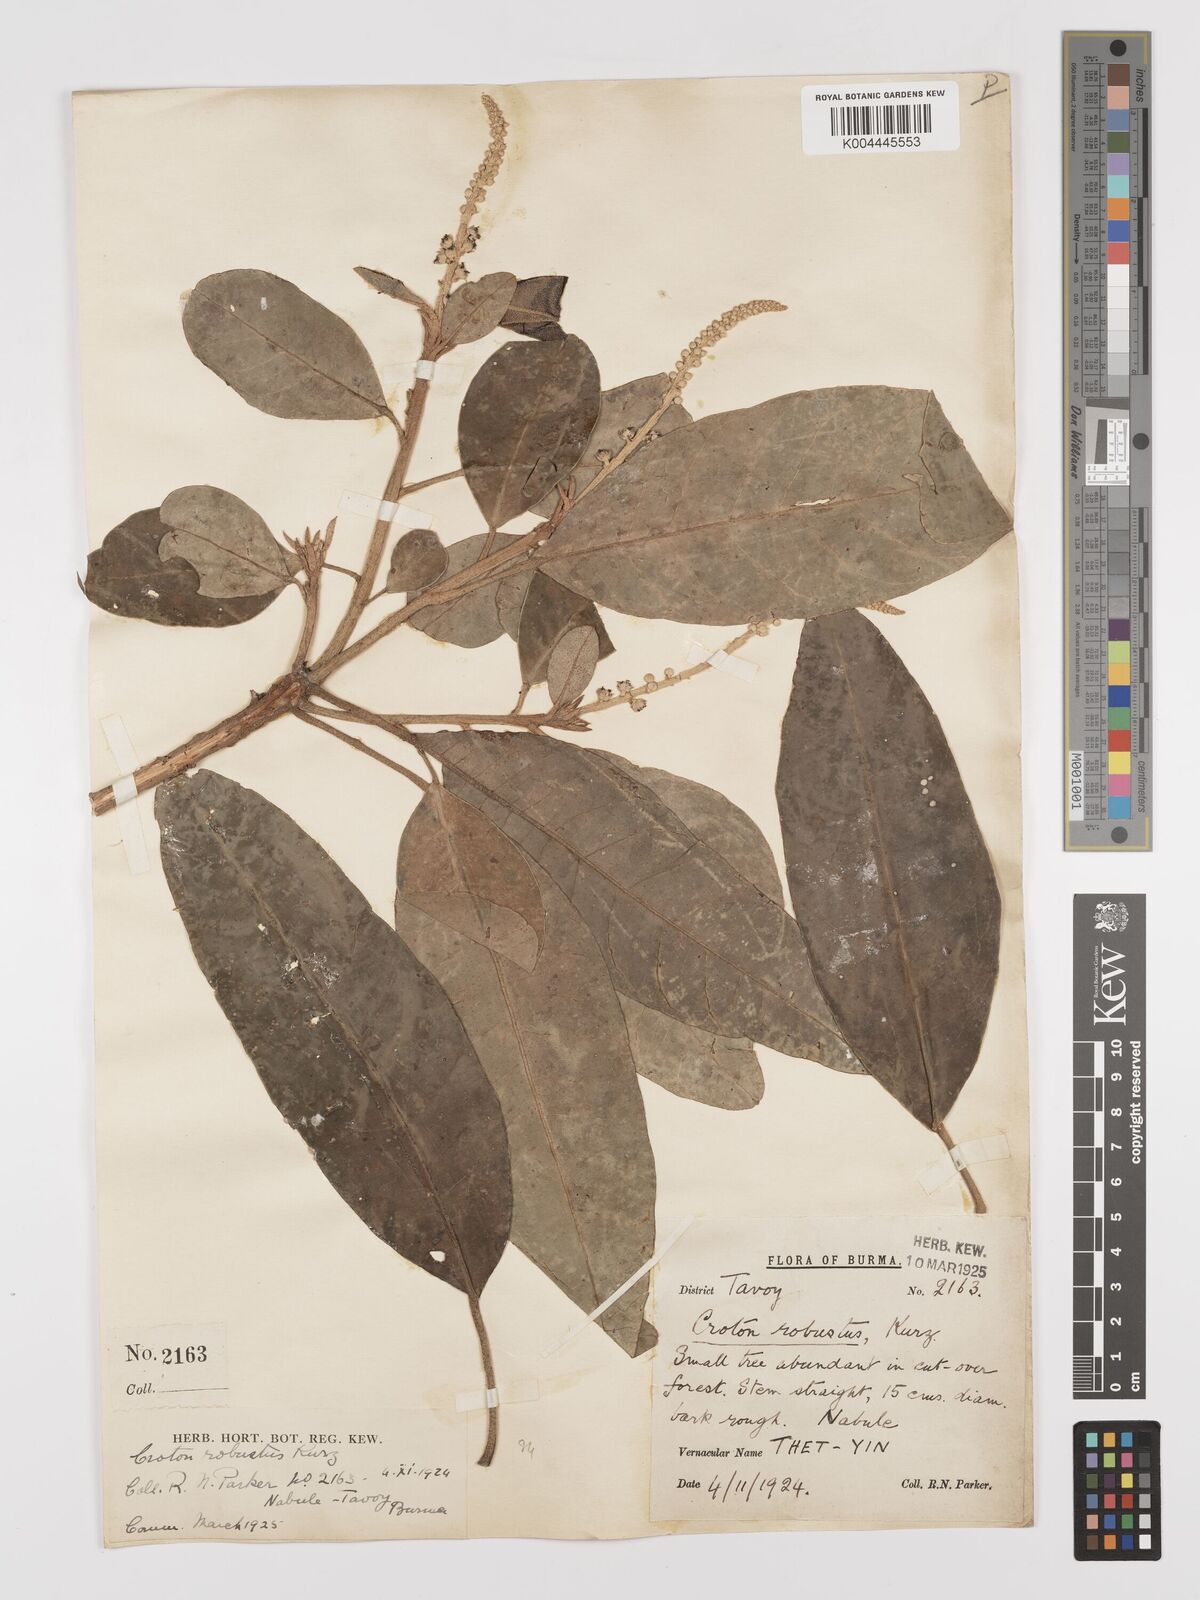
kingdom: Plantae
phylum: Tracheophyta
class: Magnoliopsida
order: Malpighiales
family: Euphorbiaceae
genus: Croton
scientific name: Croton robustus
